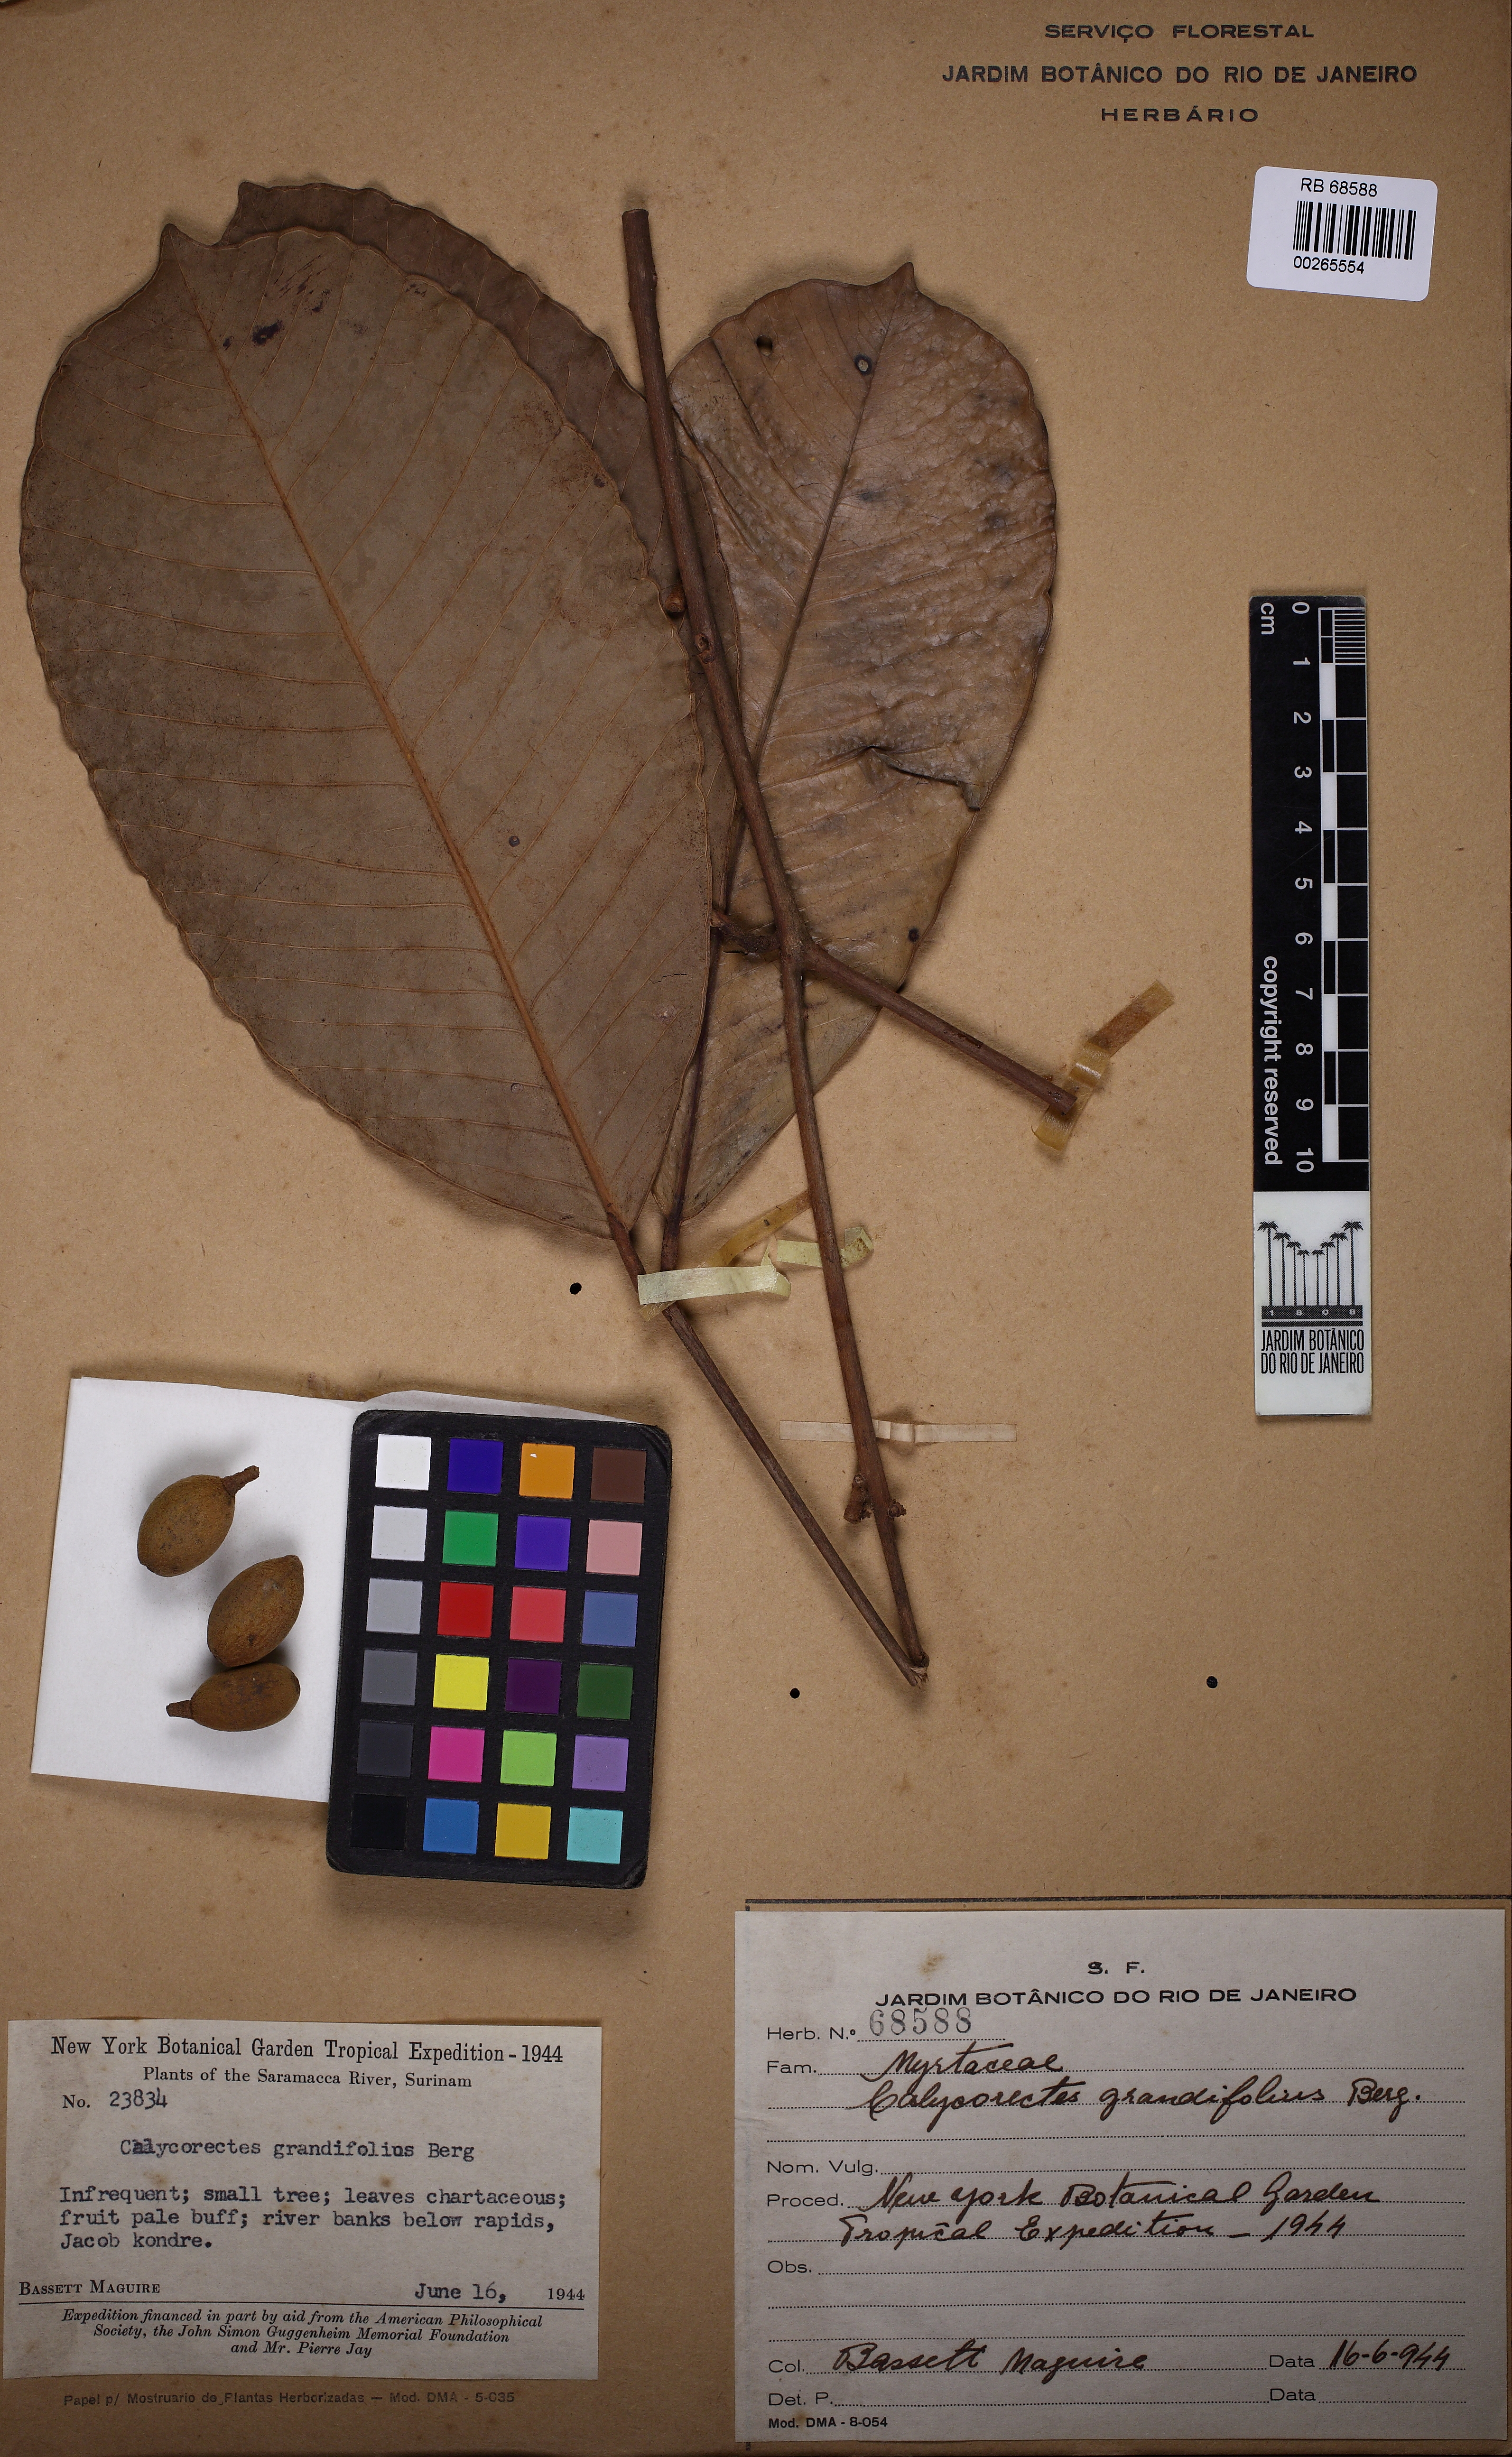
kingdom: Plantae
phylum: Tracheophyta
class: Magnoliopsida
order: Myrtales
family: Myrtaceae
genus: Calycorectes
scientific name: Calycorectes grandifolius
